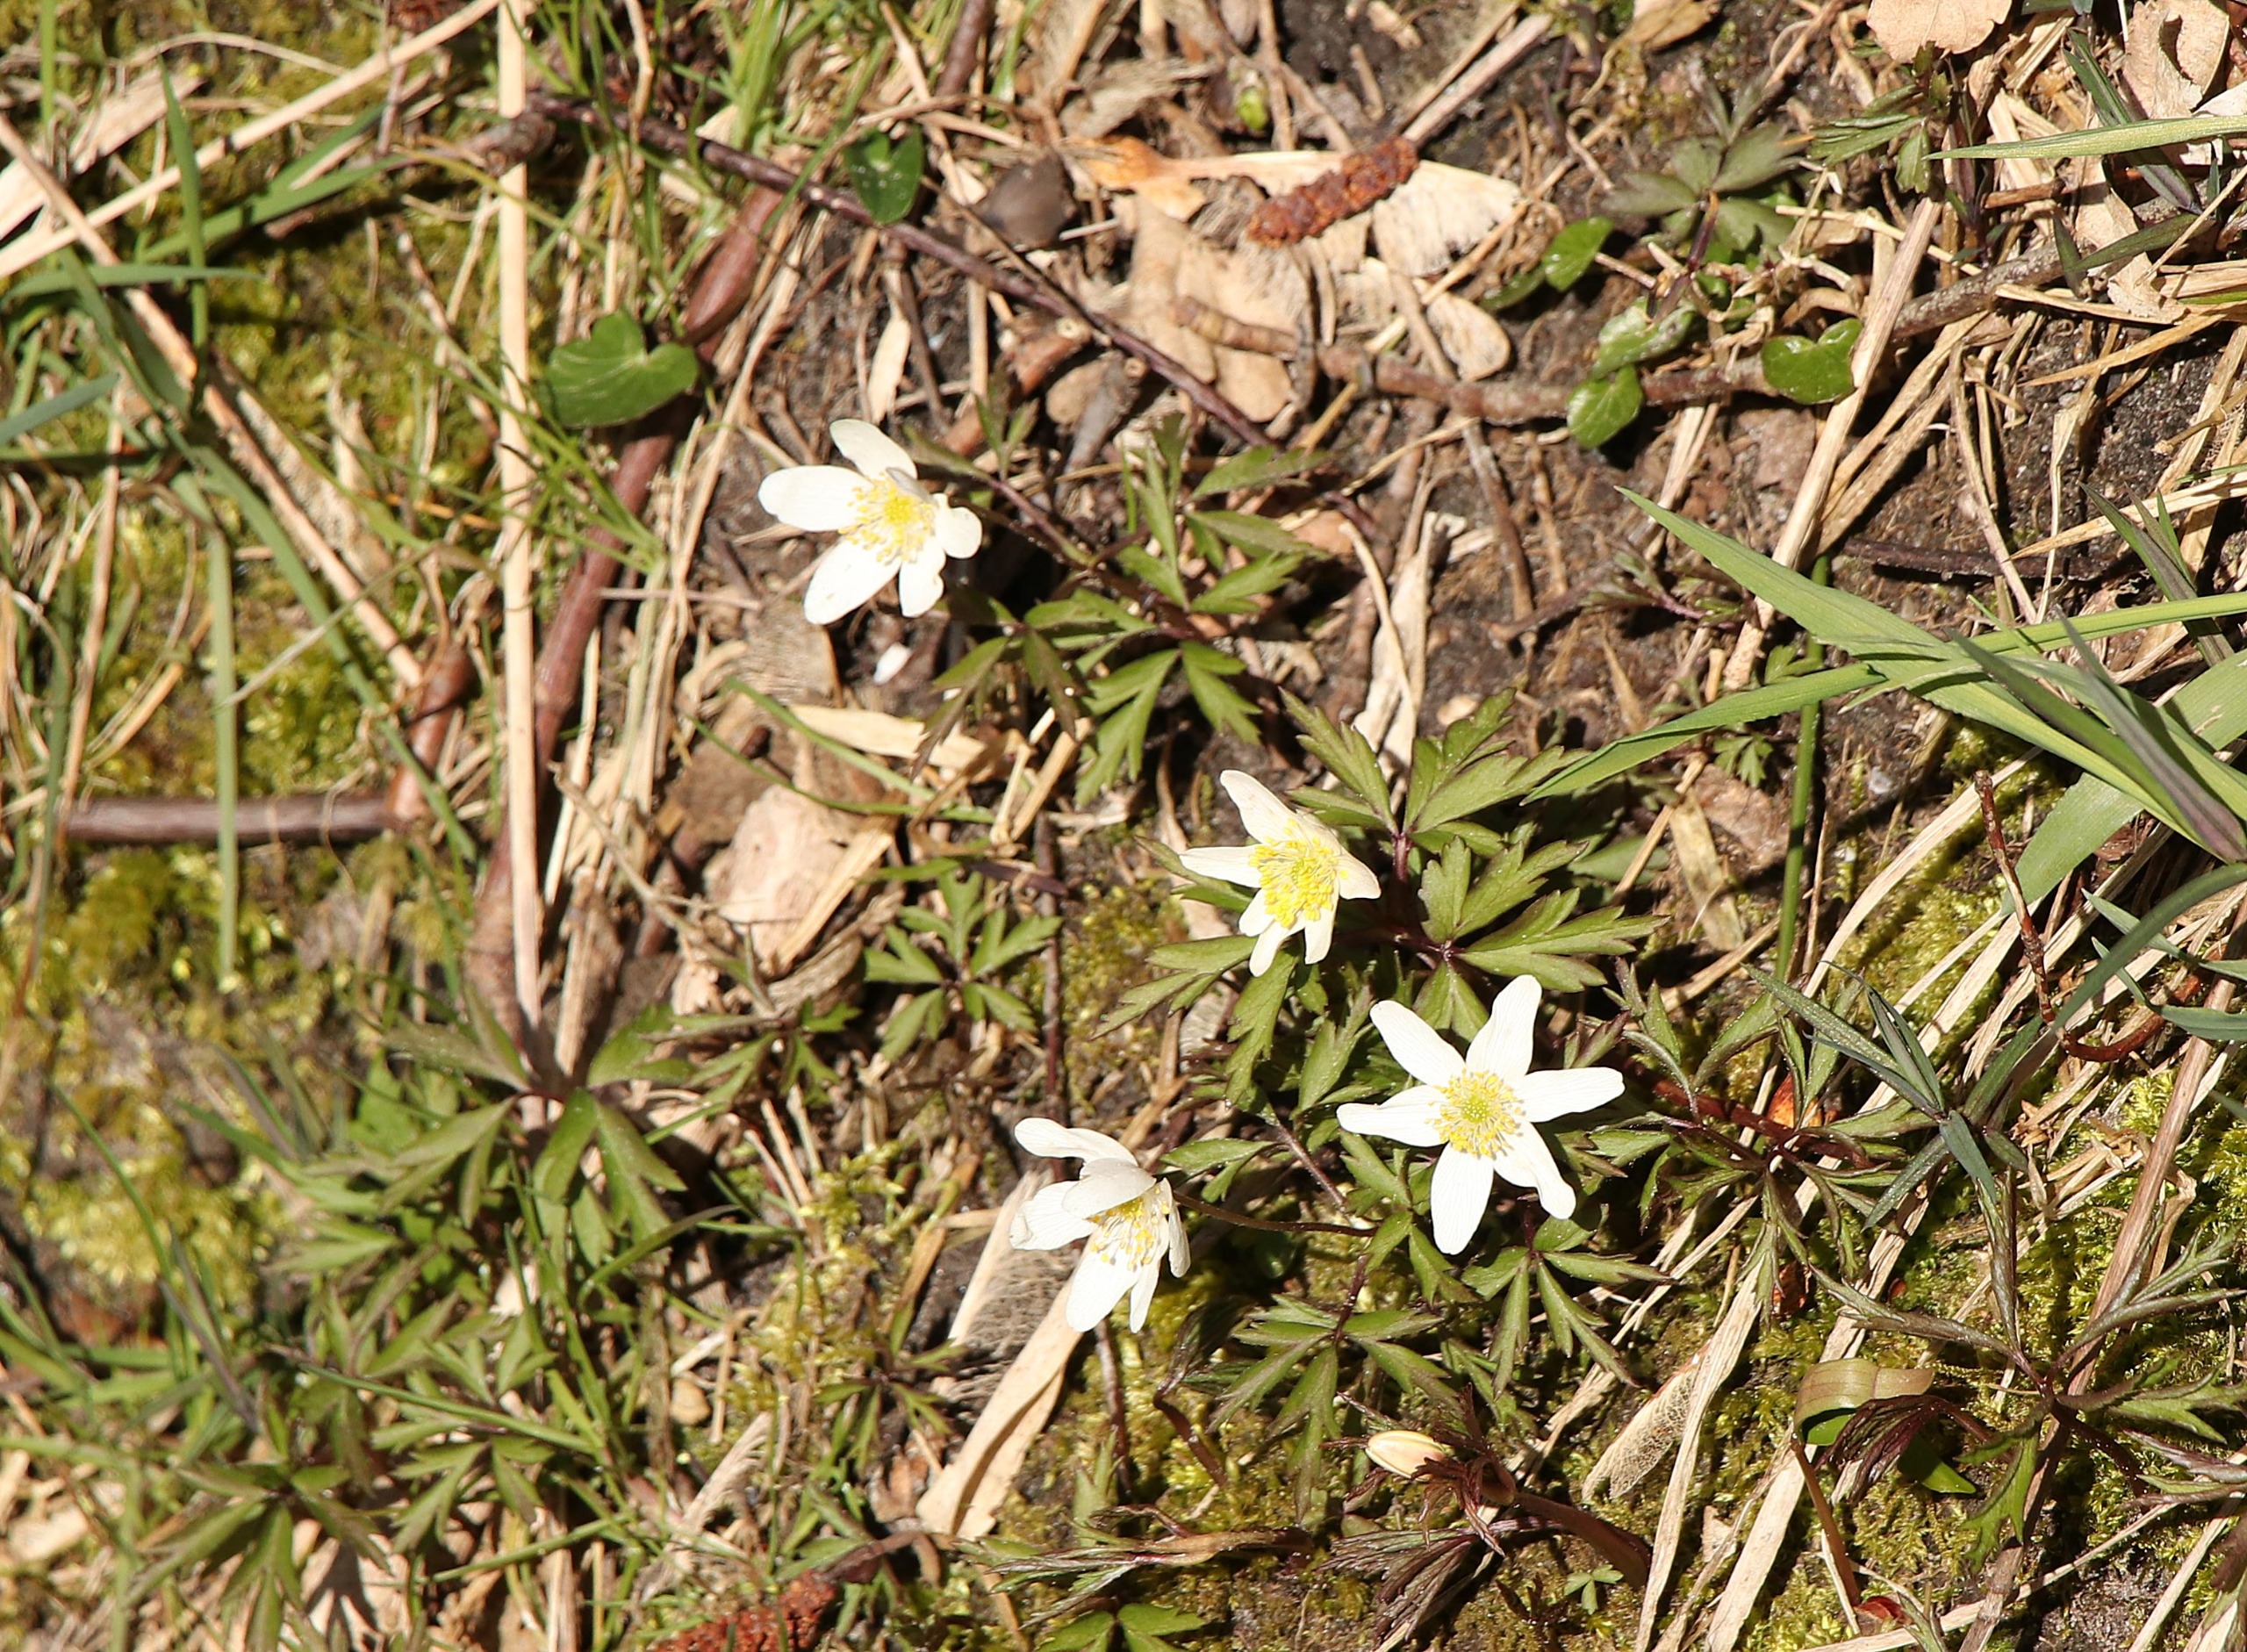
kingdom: Plantae
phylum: Tracheophyta
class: Magnoliopsida
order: Ranunculales
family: Ranunculaceae
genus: Anemone
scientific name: Anemone nemorosa
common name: Hvid anemone
